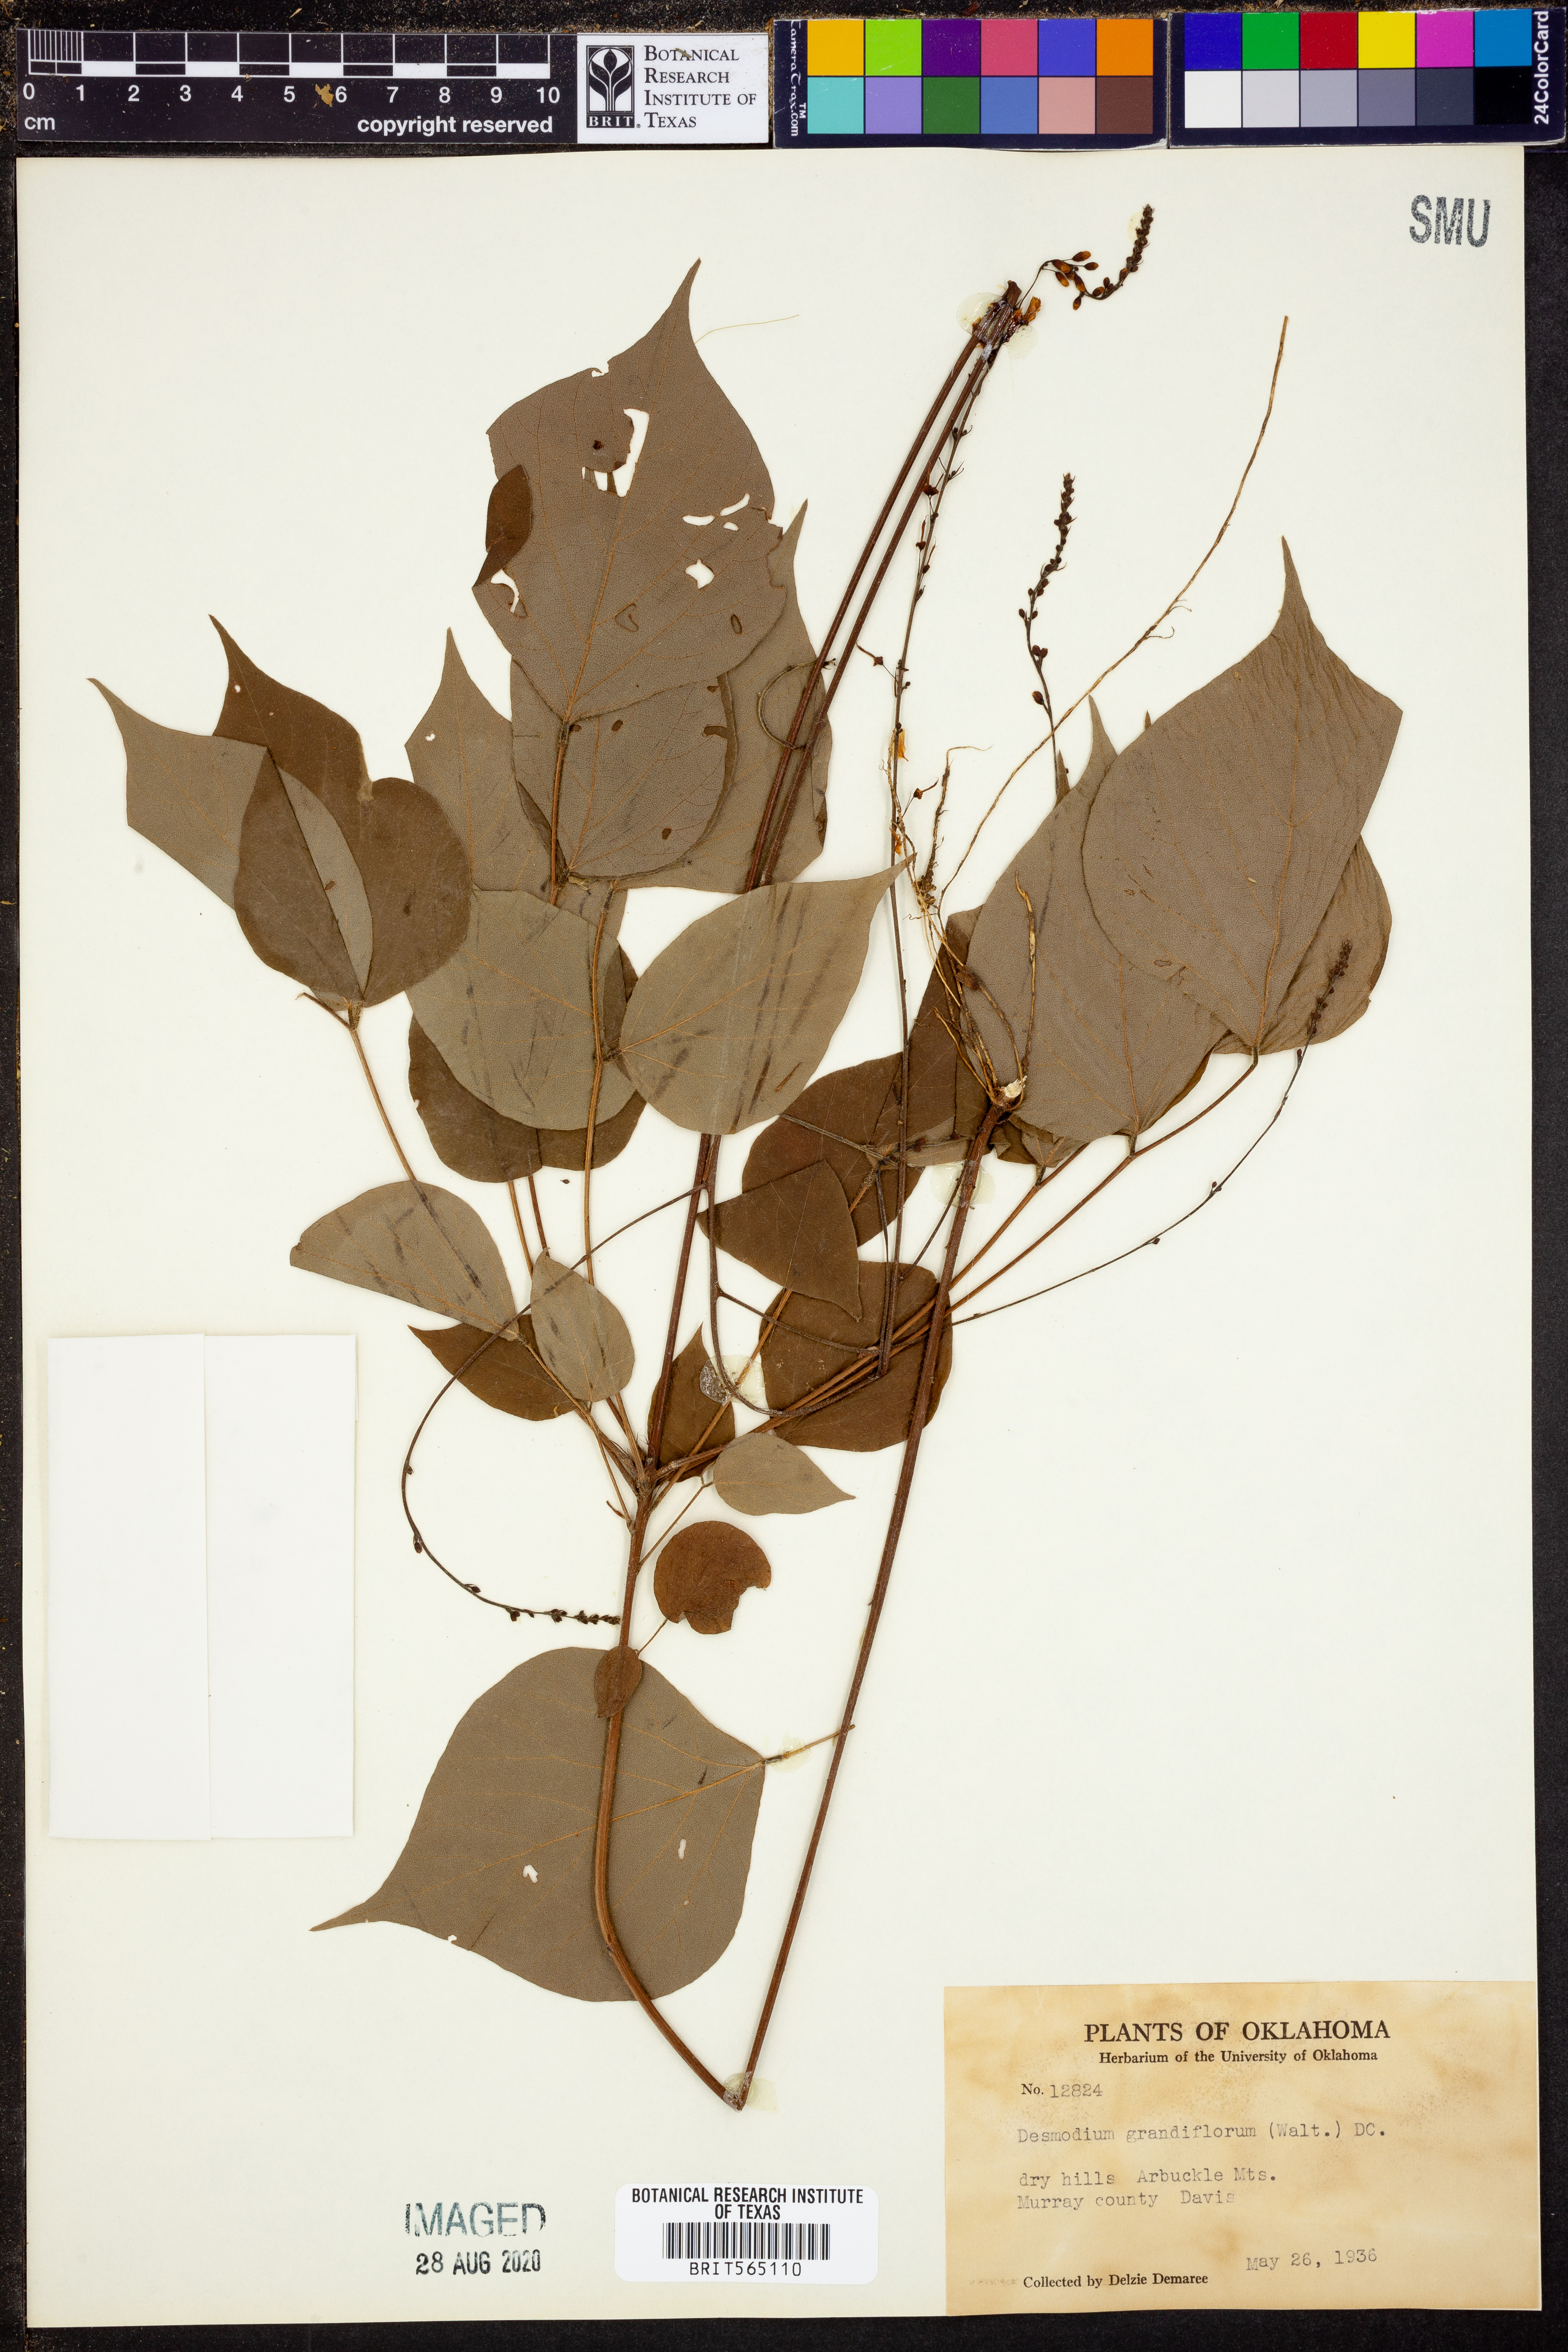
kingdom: Plantae
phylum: Tracheophyta
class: Magnoliopsida
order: Fabales
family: Fabaceae
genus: Hylodesmum
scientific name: Hylodesmum glutinosum
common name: Clustered-leaved tick-trefoil
